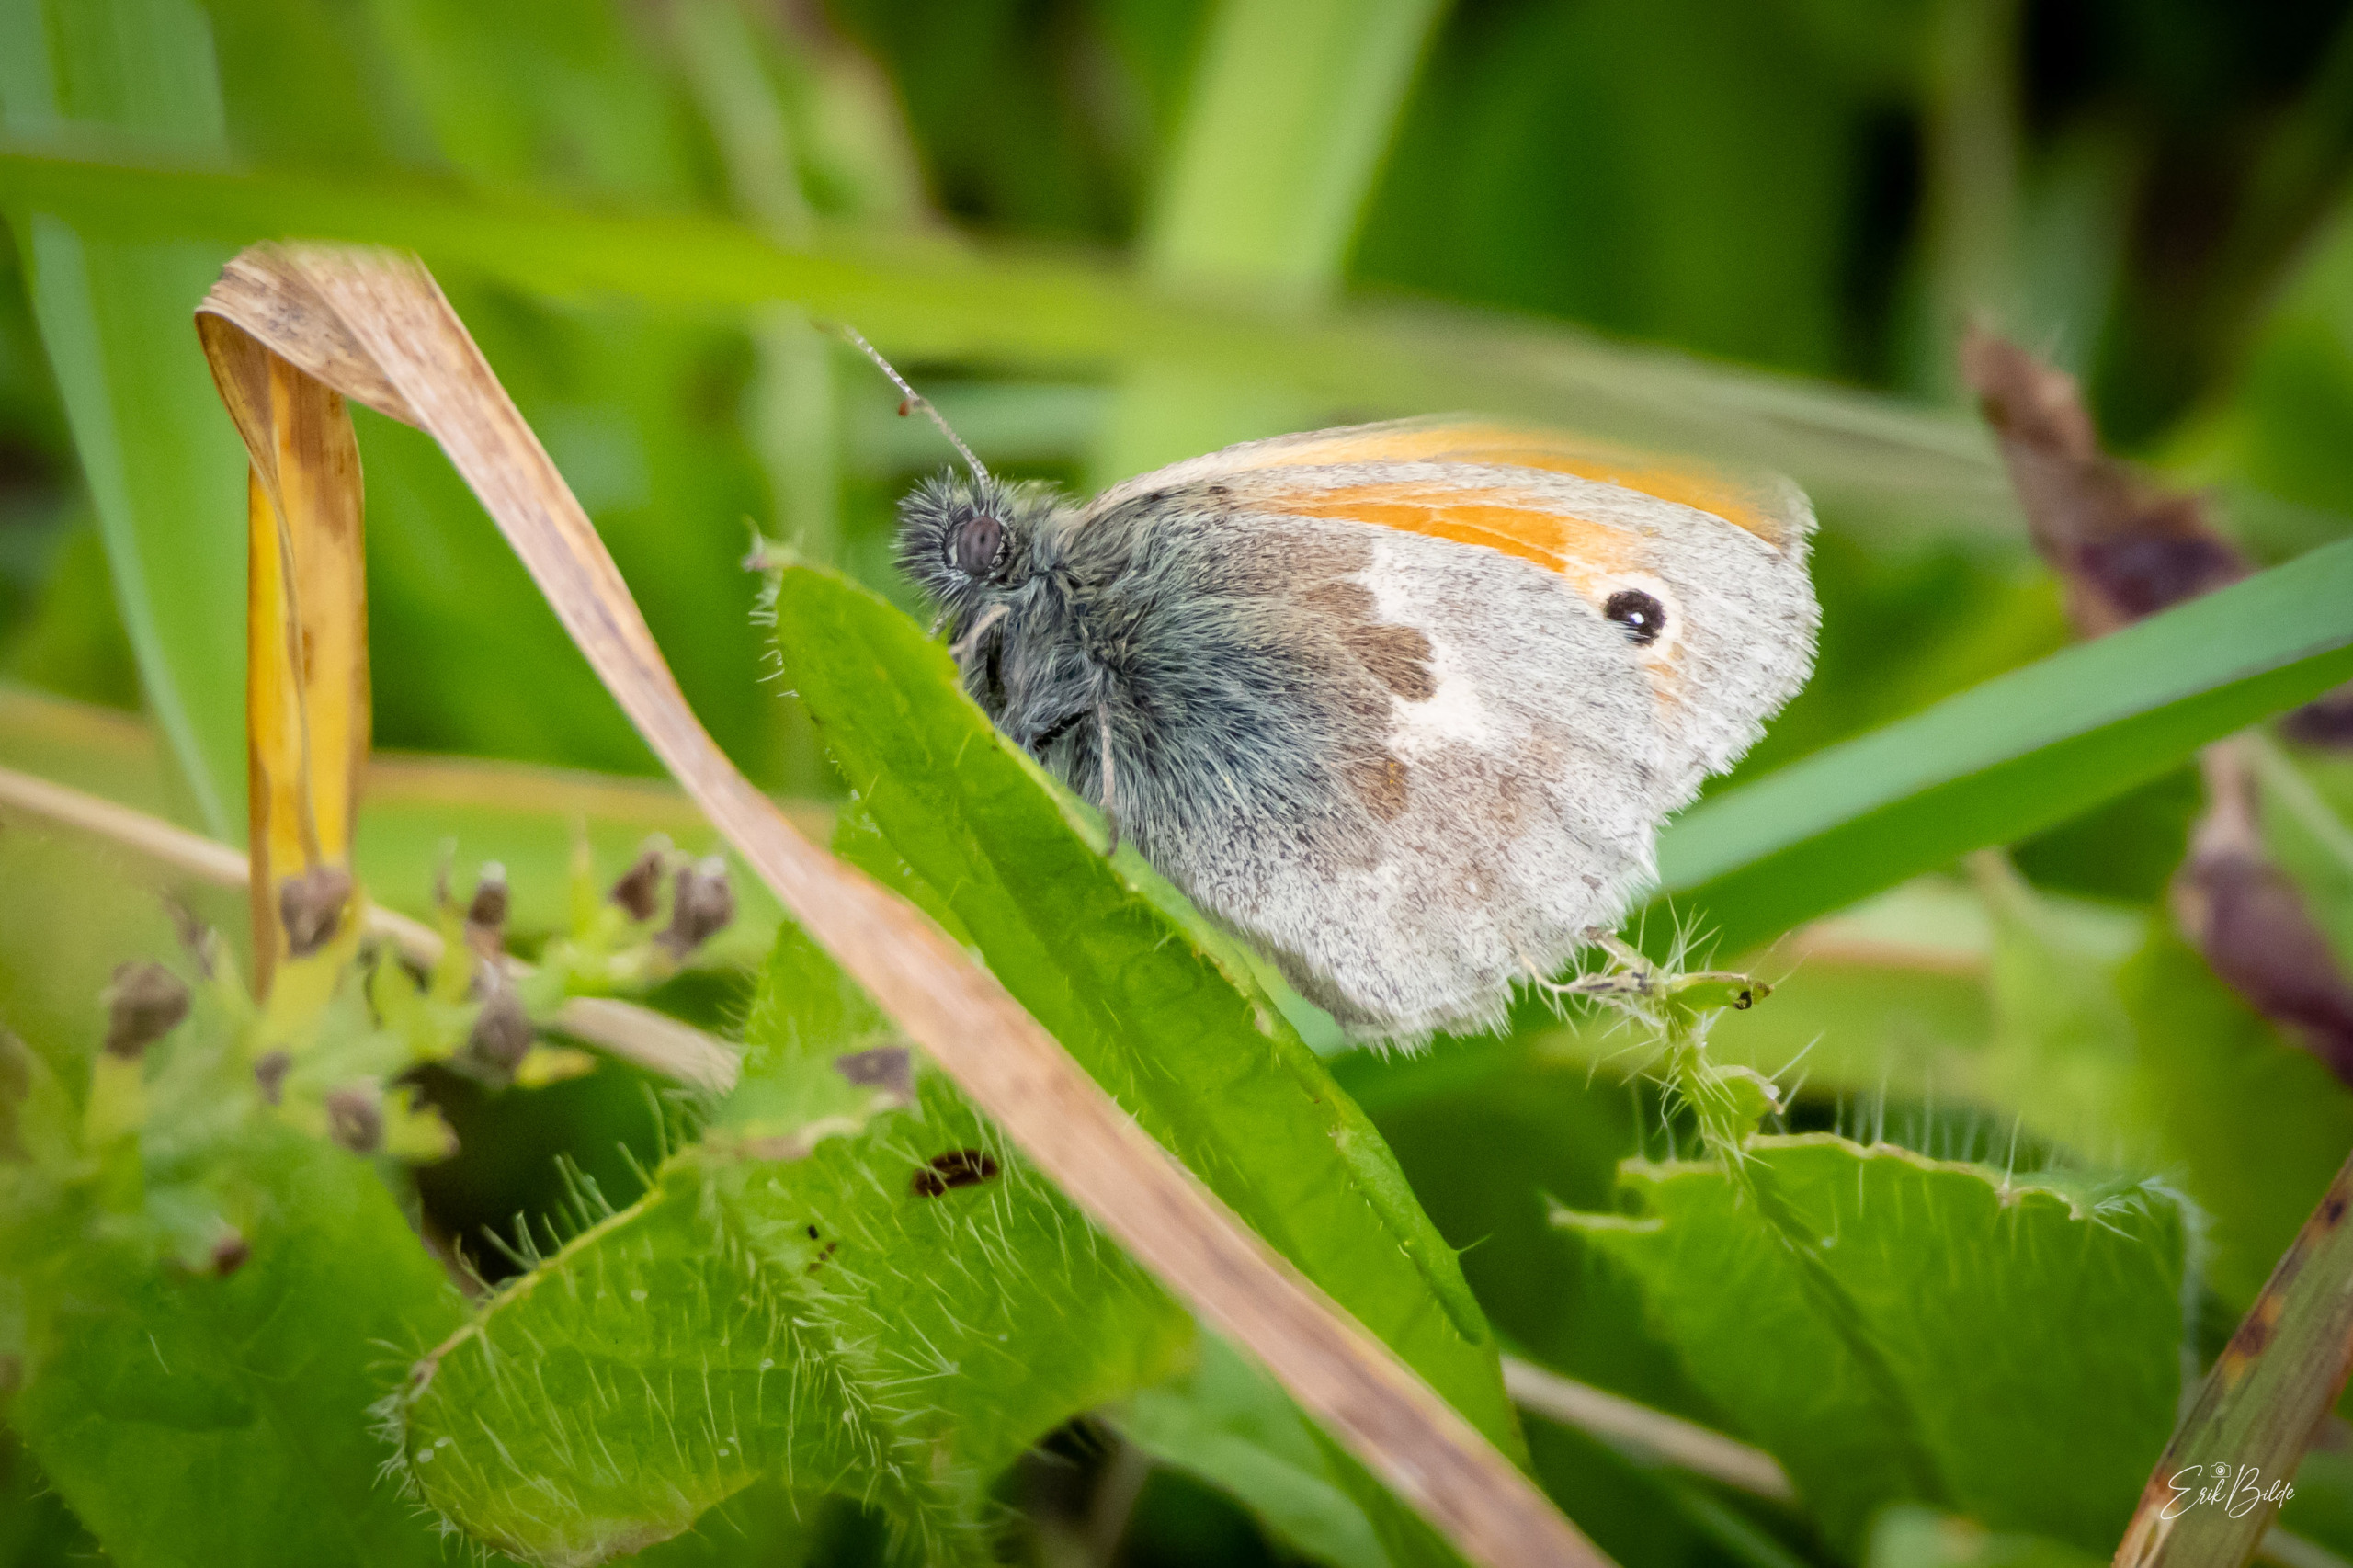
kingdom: Animalia
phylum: Arthropoda
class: Insecta
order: Lepidoptera
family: Nymphalidae
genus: Coenonympha
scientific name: Coenonympha pamphilus
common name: Okkergul randøje
